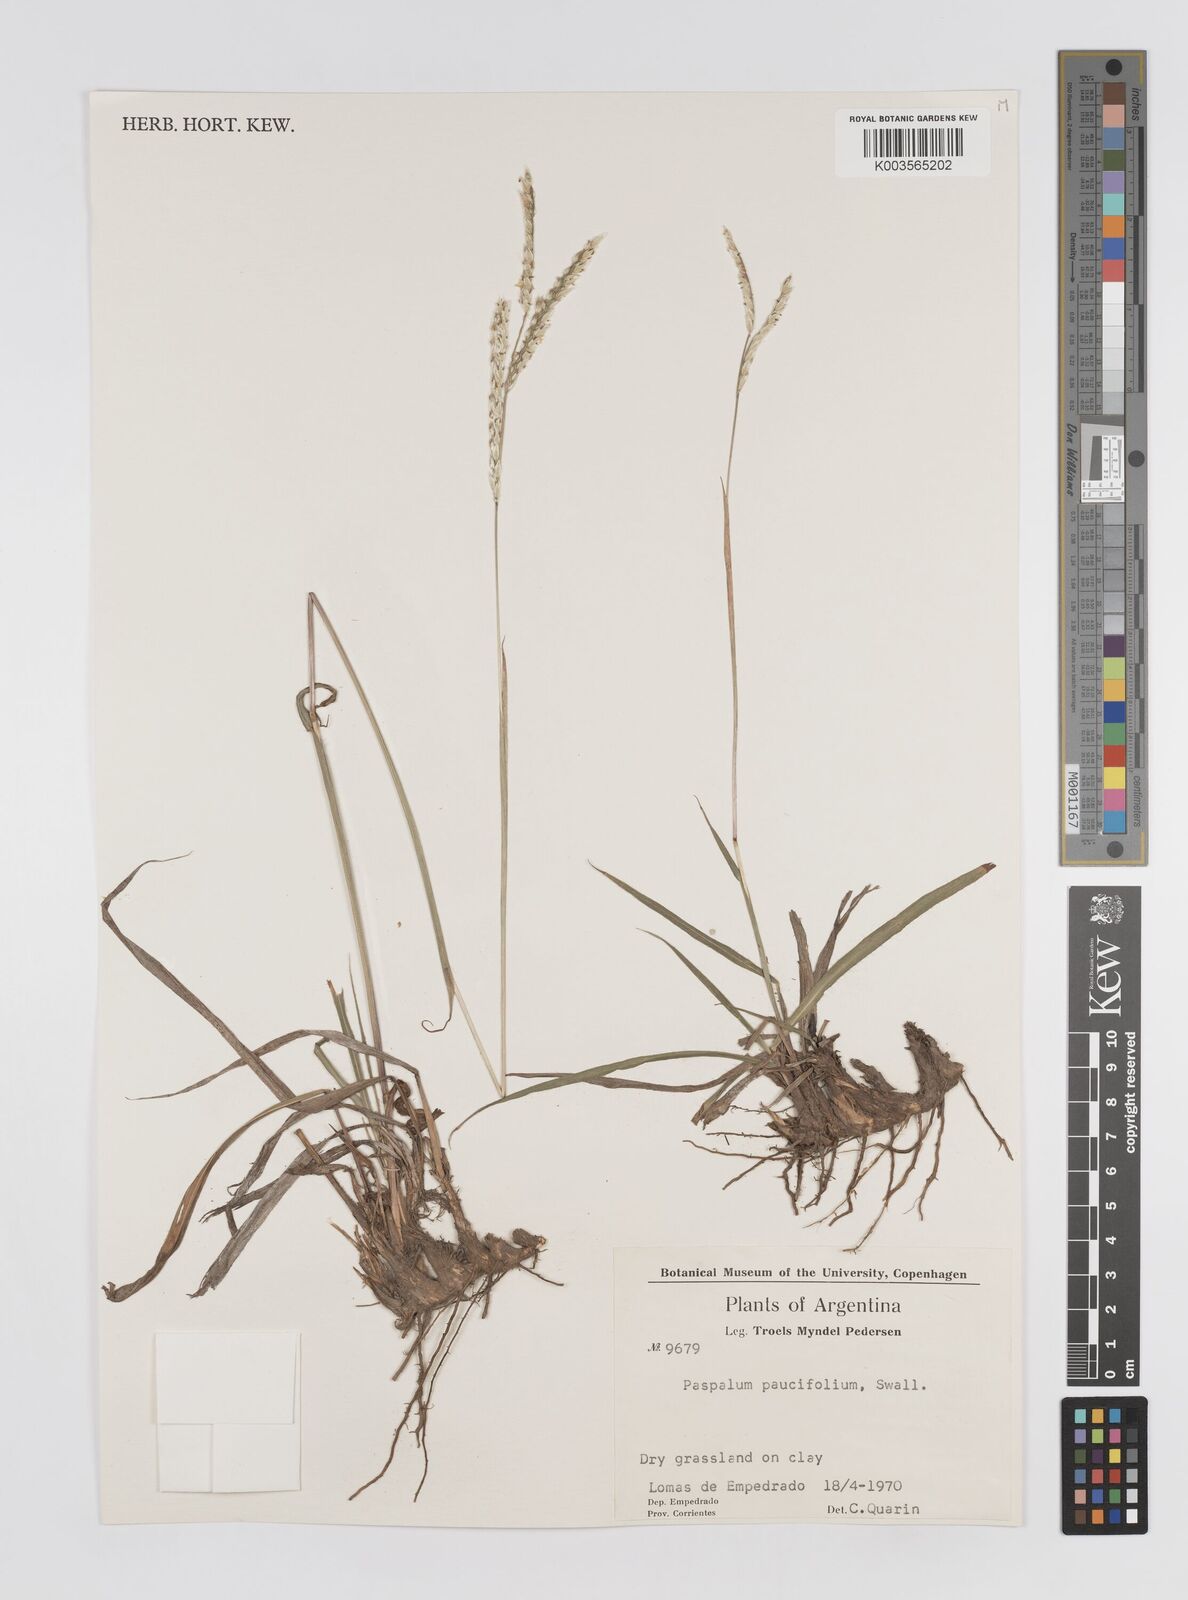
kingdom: Plantae
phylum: Tracheophyta
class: Liliopsida
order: Poales
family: Poaceae
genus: Paspalum
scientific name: Paspalum paucifolium
